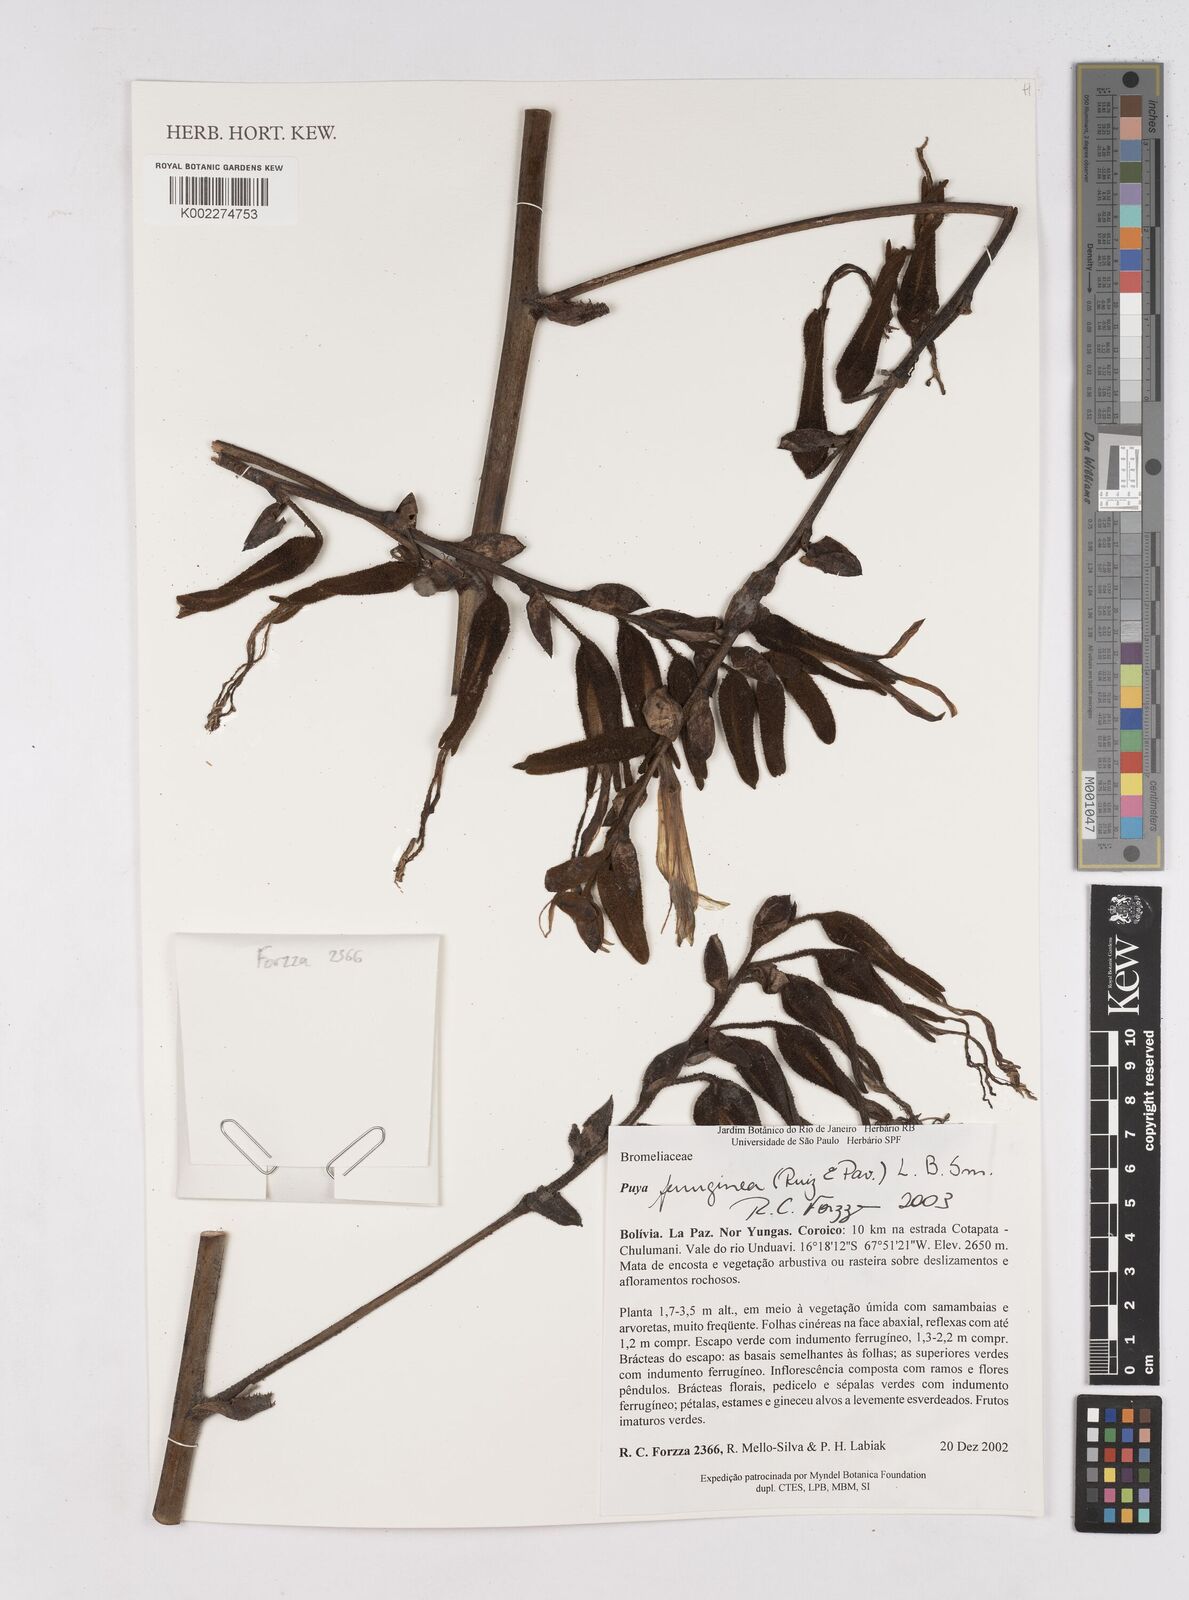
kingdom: Plantae
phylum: Tracheophyta
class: Liliopsida
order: Poales
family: Bromeliaceae
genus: Puya
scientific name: Puya ferruginea
